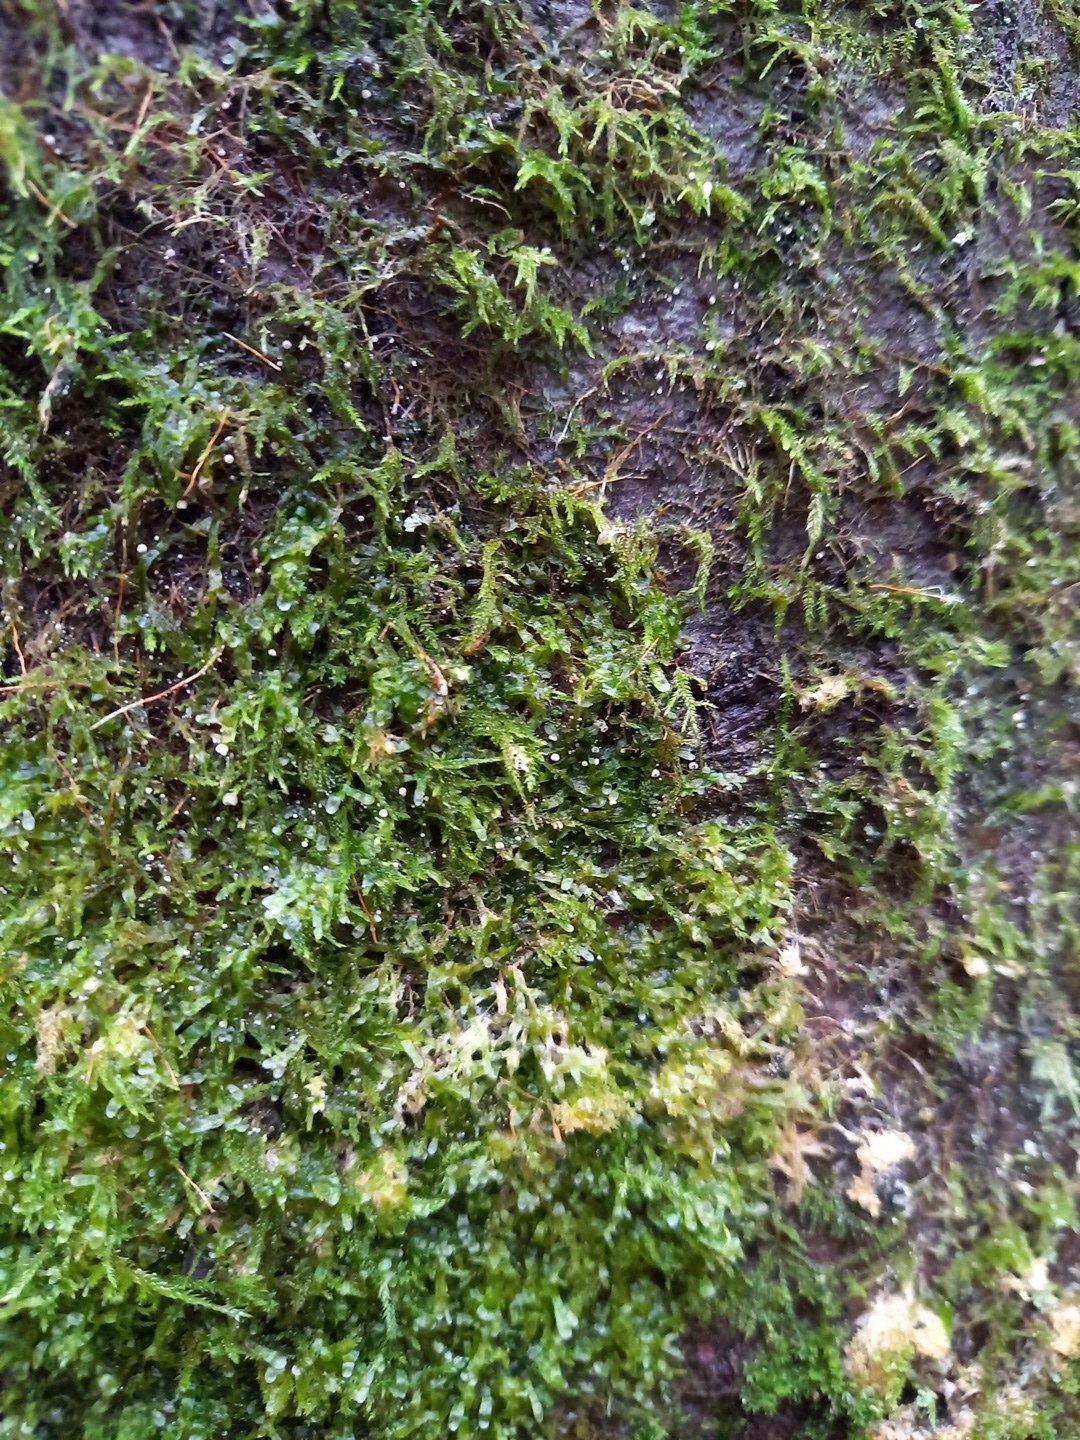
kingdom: Fungi
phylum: Basidiomycota
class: Agaricomycetes
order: Agaricales
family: Chromocyphellaceae
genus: Chromocyphella
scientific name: Chromocyphella muscicola
